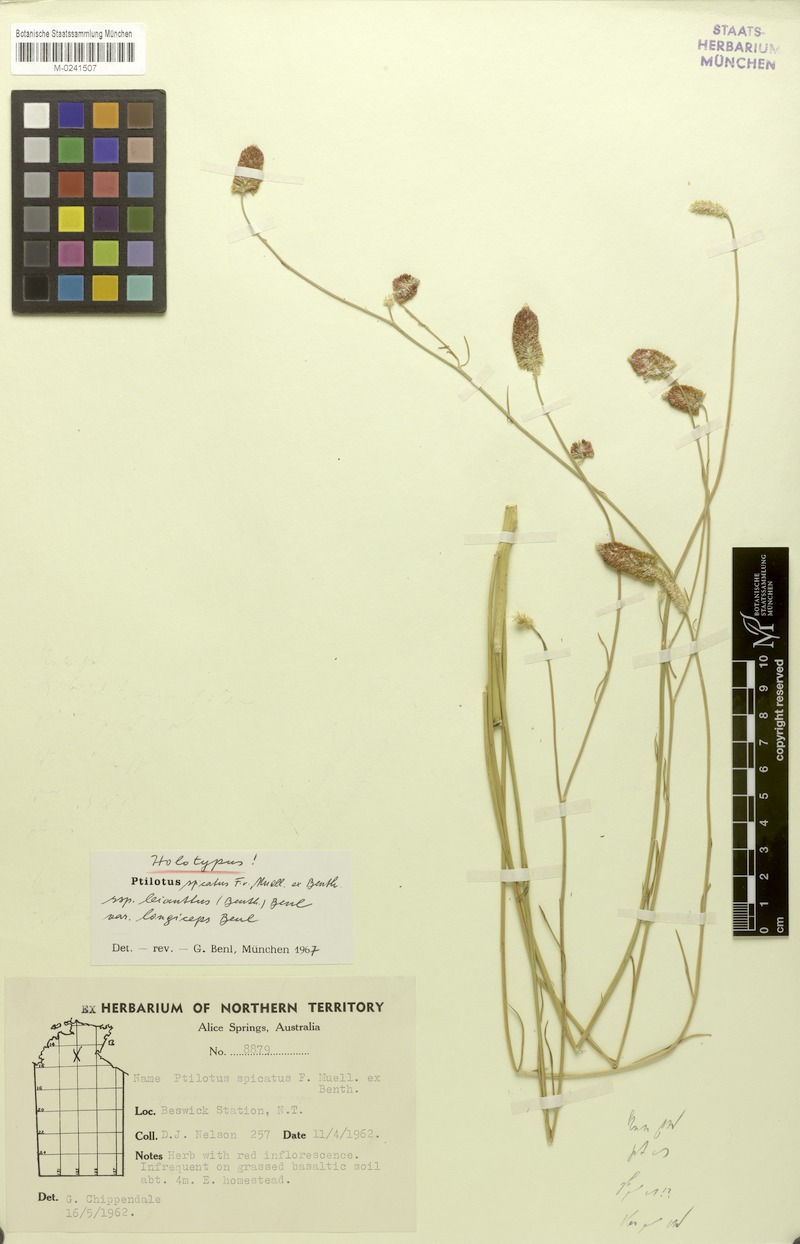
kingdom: Plantae
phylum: Tracheophyta
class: Magnoliopsida
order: Caryophyllales
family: Amaranthaceae
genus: Ptilotus
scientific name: Ptilotus spicatus
